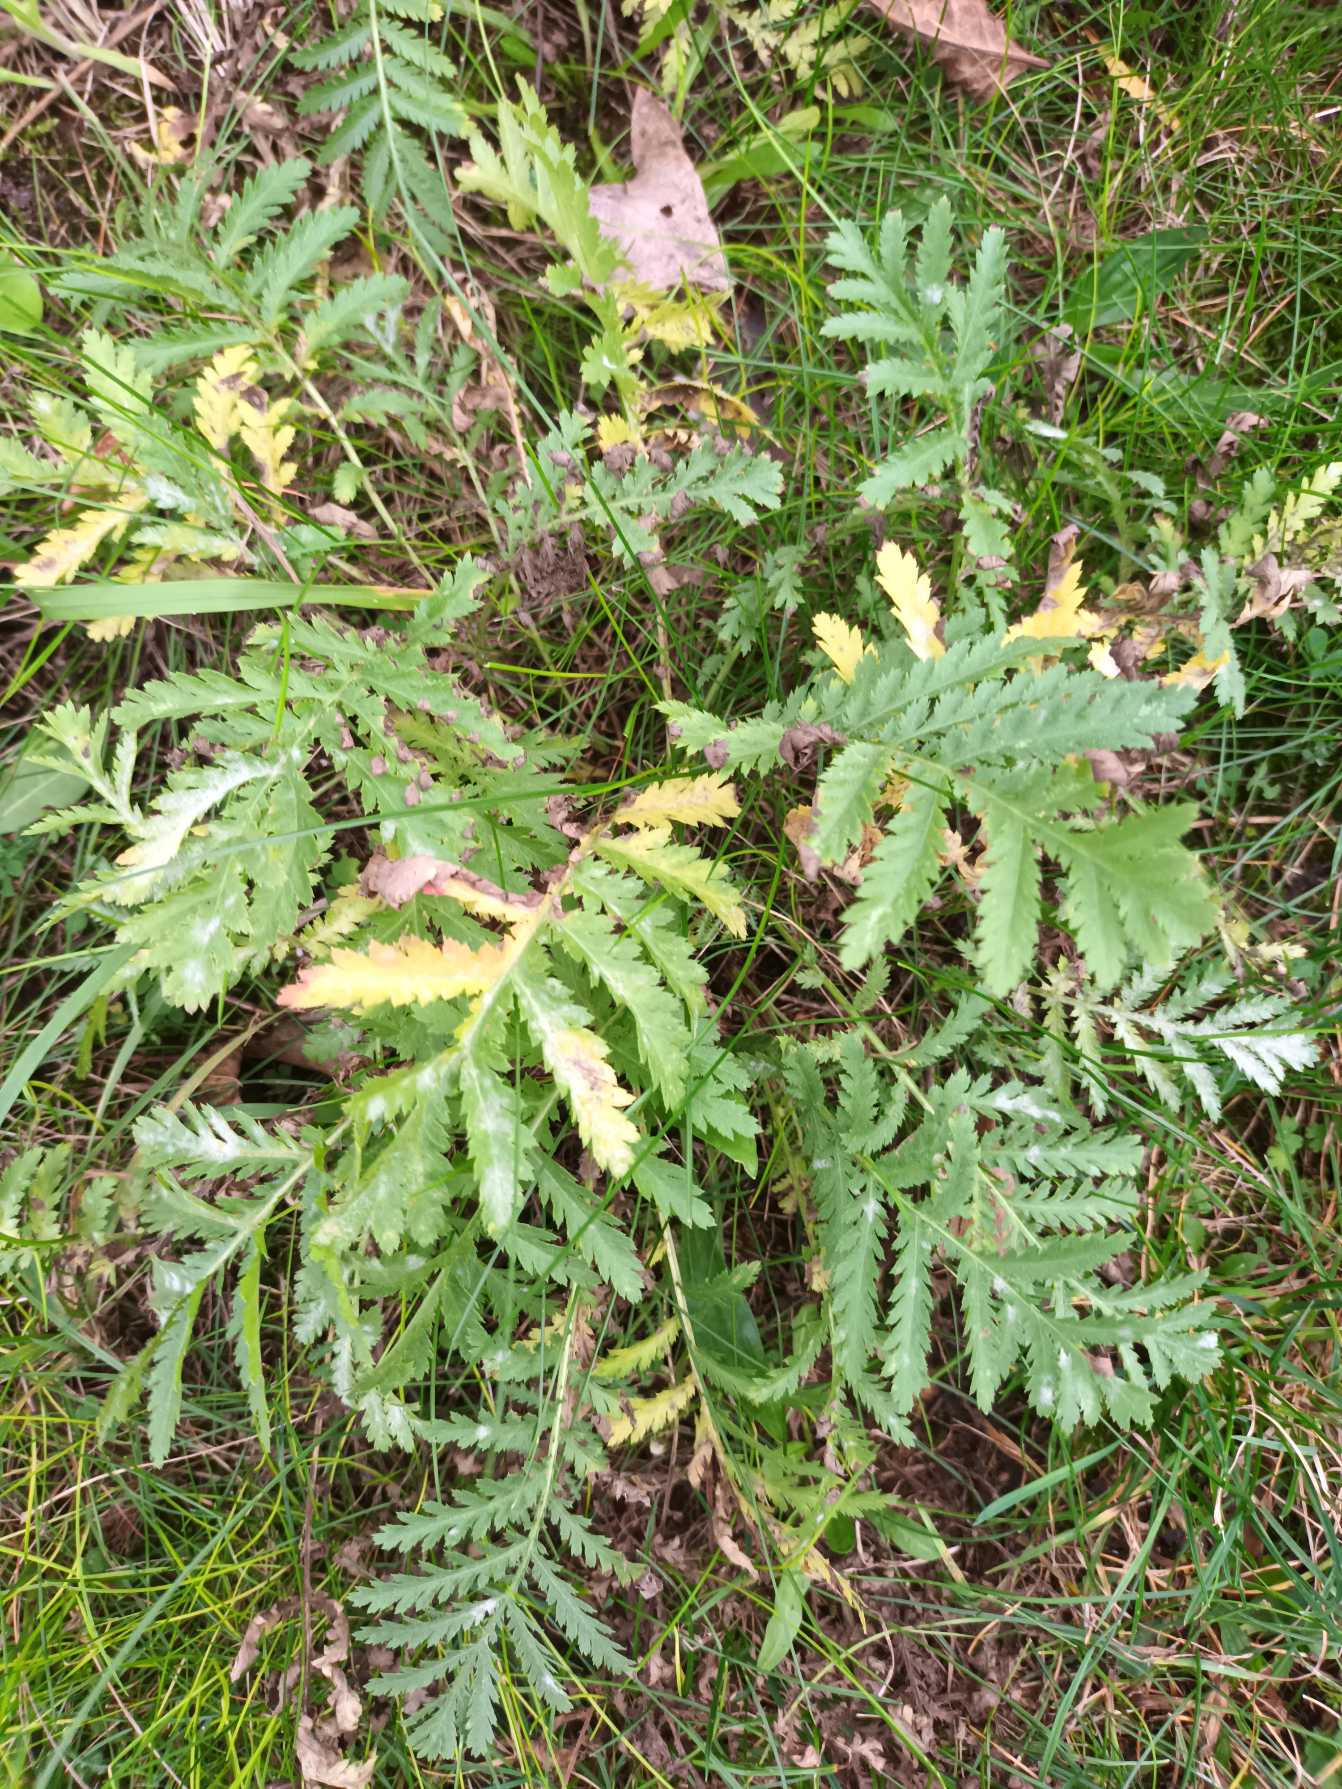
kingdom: Plantae
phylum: Tracheophyta
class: Magnoliopsida
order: Asterales
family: Asteraceae
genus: Tanacetum
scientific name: Tanacetum vulgare
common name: Rejnfan
